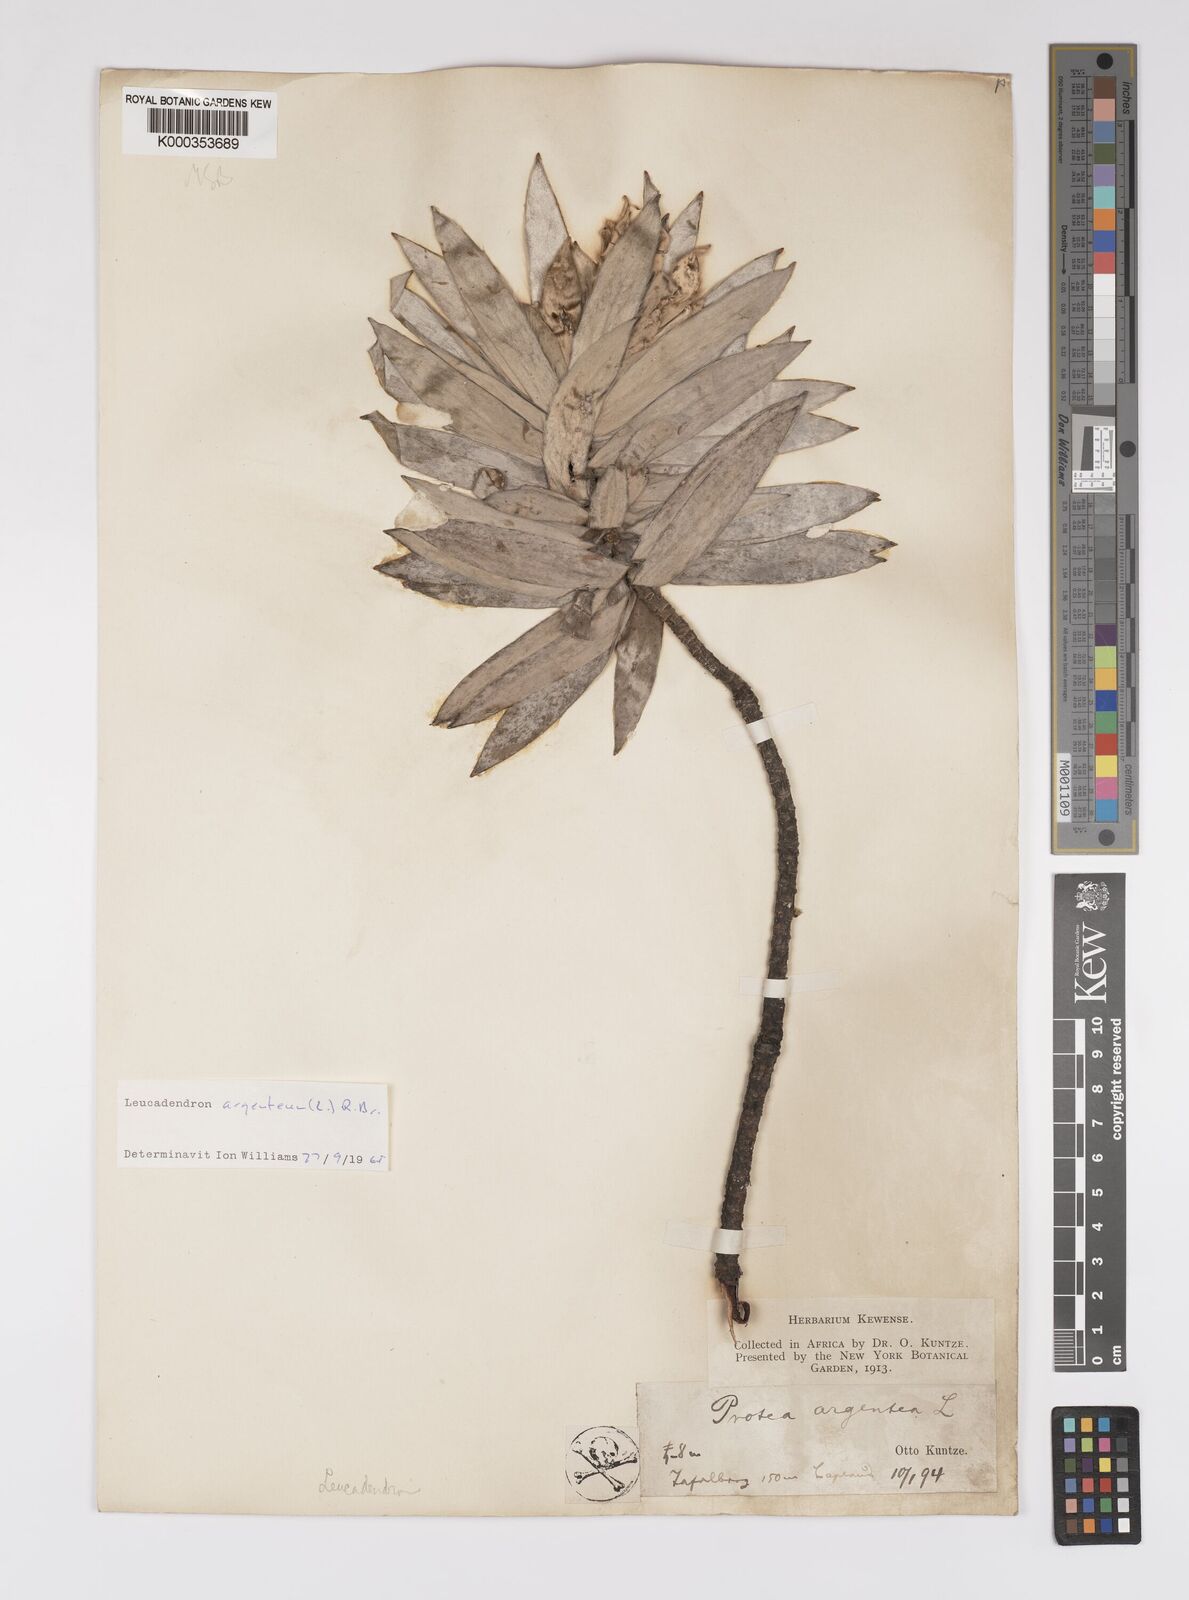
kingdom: Plantae
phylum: Tracheophyta
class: Magnoliopsida
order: Proteales
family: Proteaceae
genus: Leucadendron
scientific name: Leucadendron argenteum
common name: Cape silver tree
